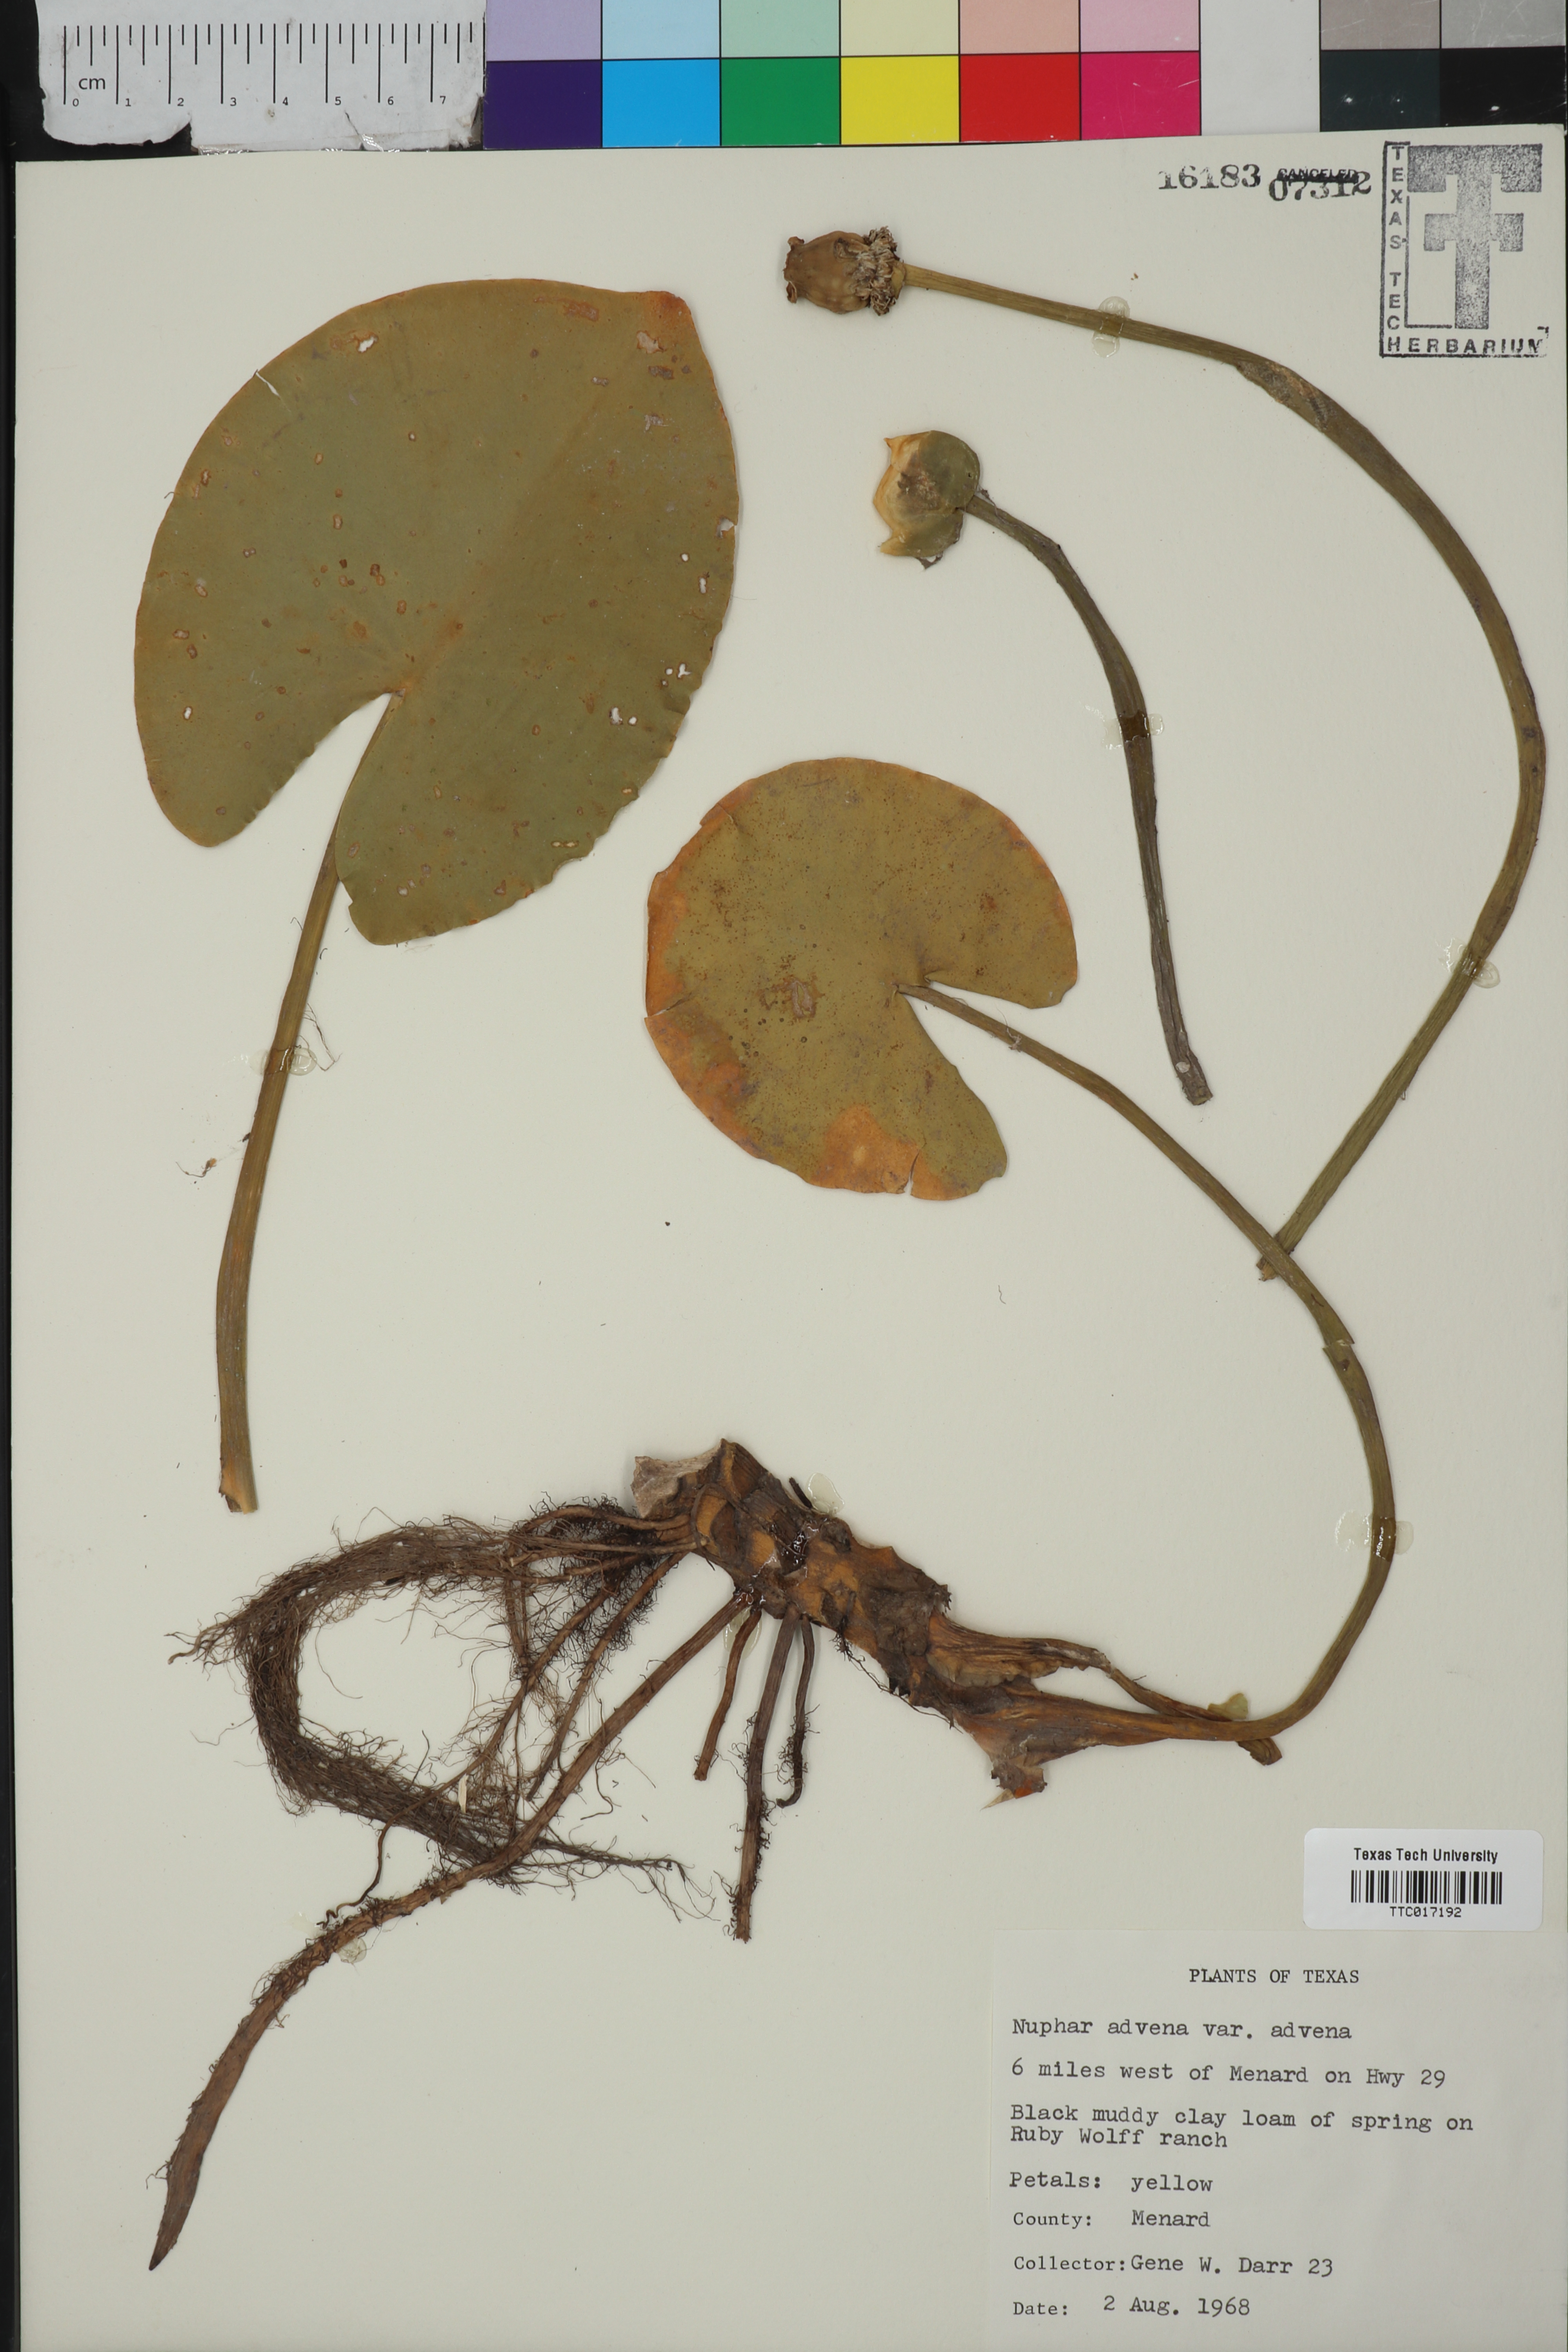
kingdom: Plantae
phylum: Tracheophyta
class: Magnoliopsida
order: Nymphaeales
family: Nymphaeaceae
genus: Nuphar
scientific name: Nuphar advena
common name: Spatter-dock
